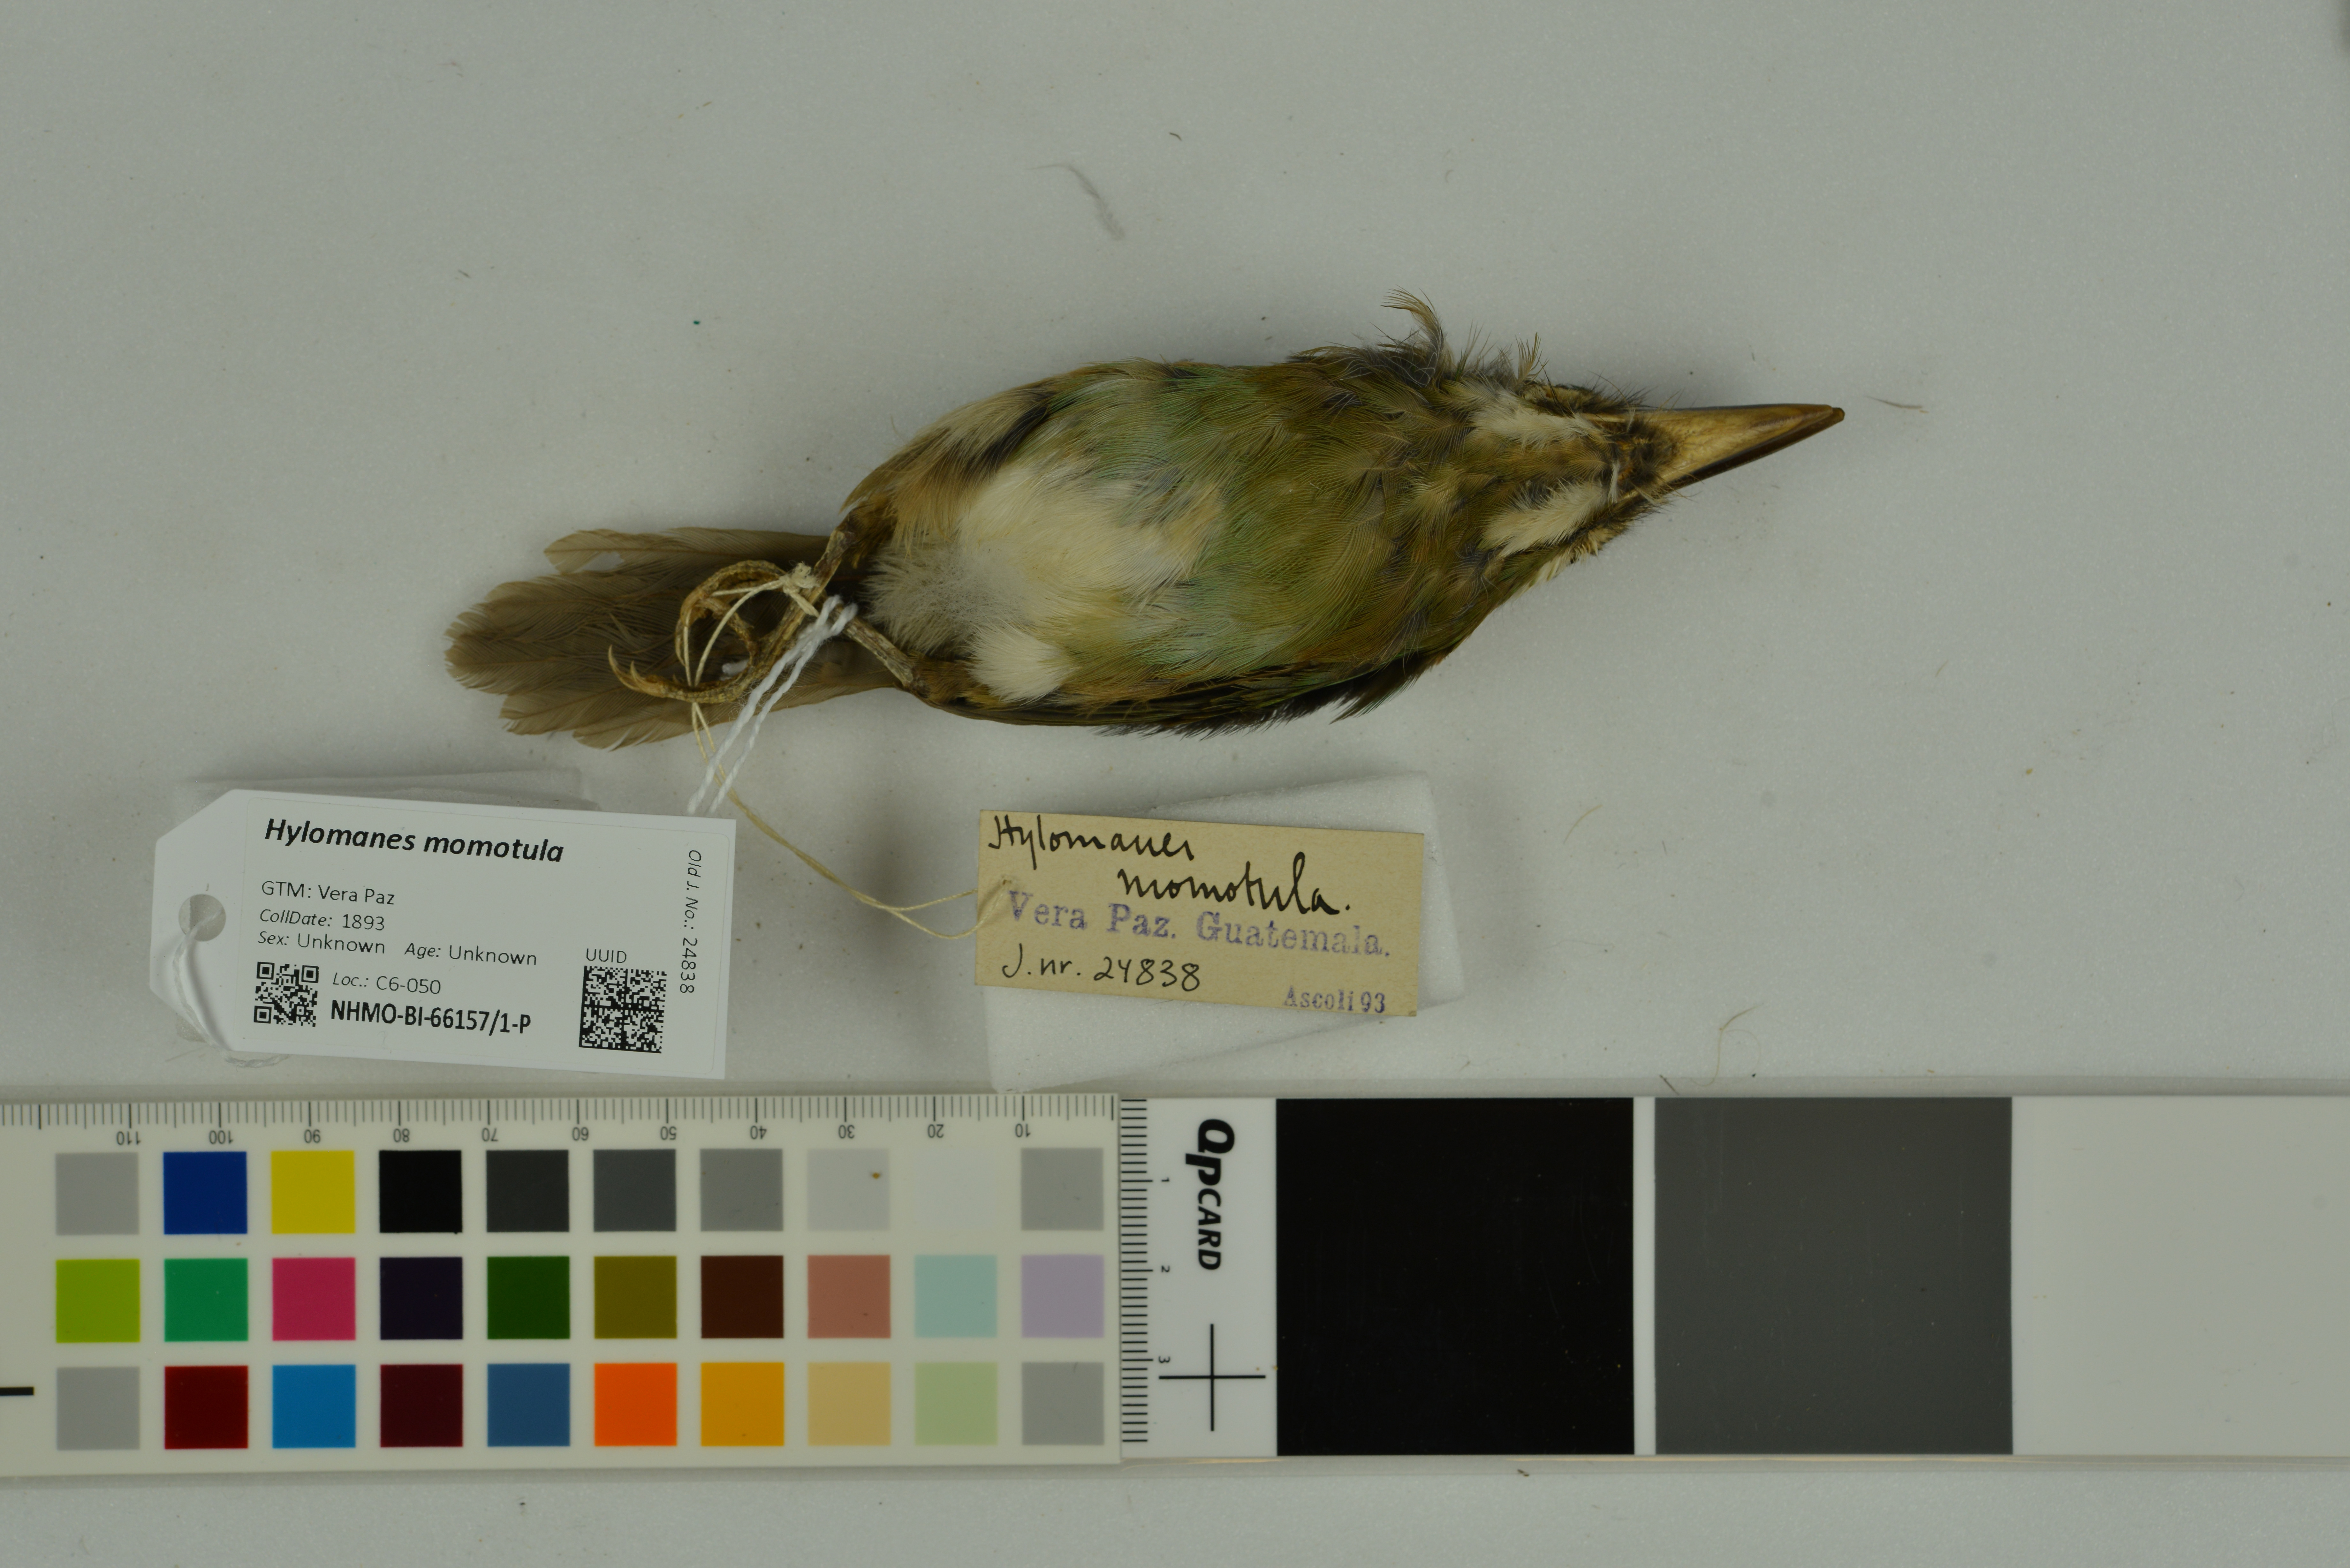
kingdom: Animalia
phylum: Chordata
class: Aves
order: Coraciiformes
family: Momotidae
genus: Hylomanes
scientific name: Hylomanes momotula
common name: Tody motmot
